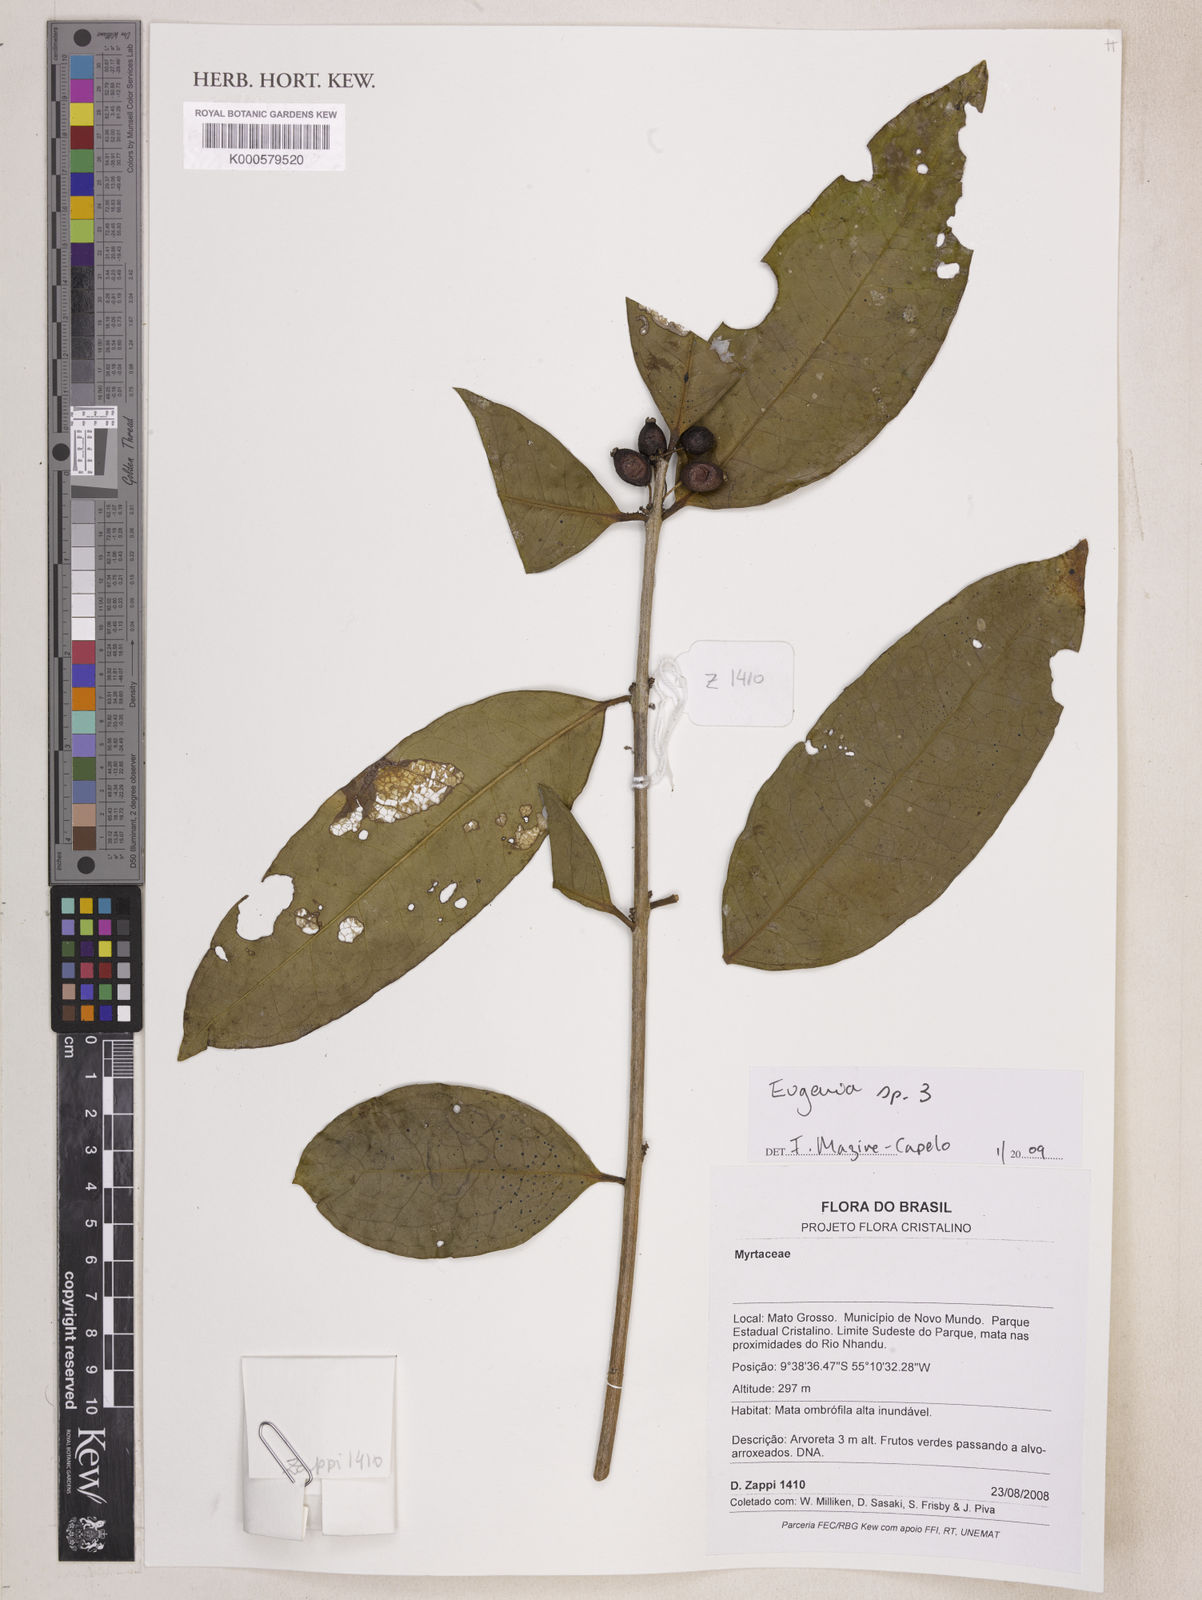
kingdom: Plantae
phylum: Tracheophyta
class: Magnoliopsida
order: Myrtales
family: Myrtaceae
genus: Eugenia
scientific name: Eugenia
